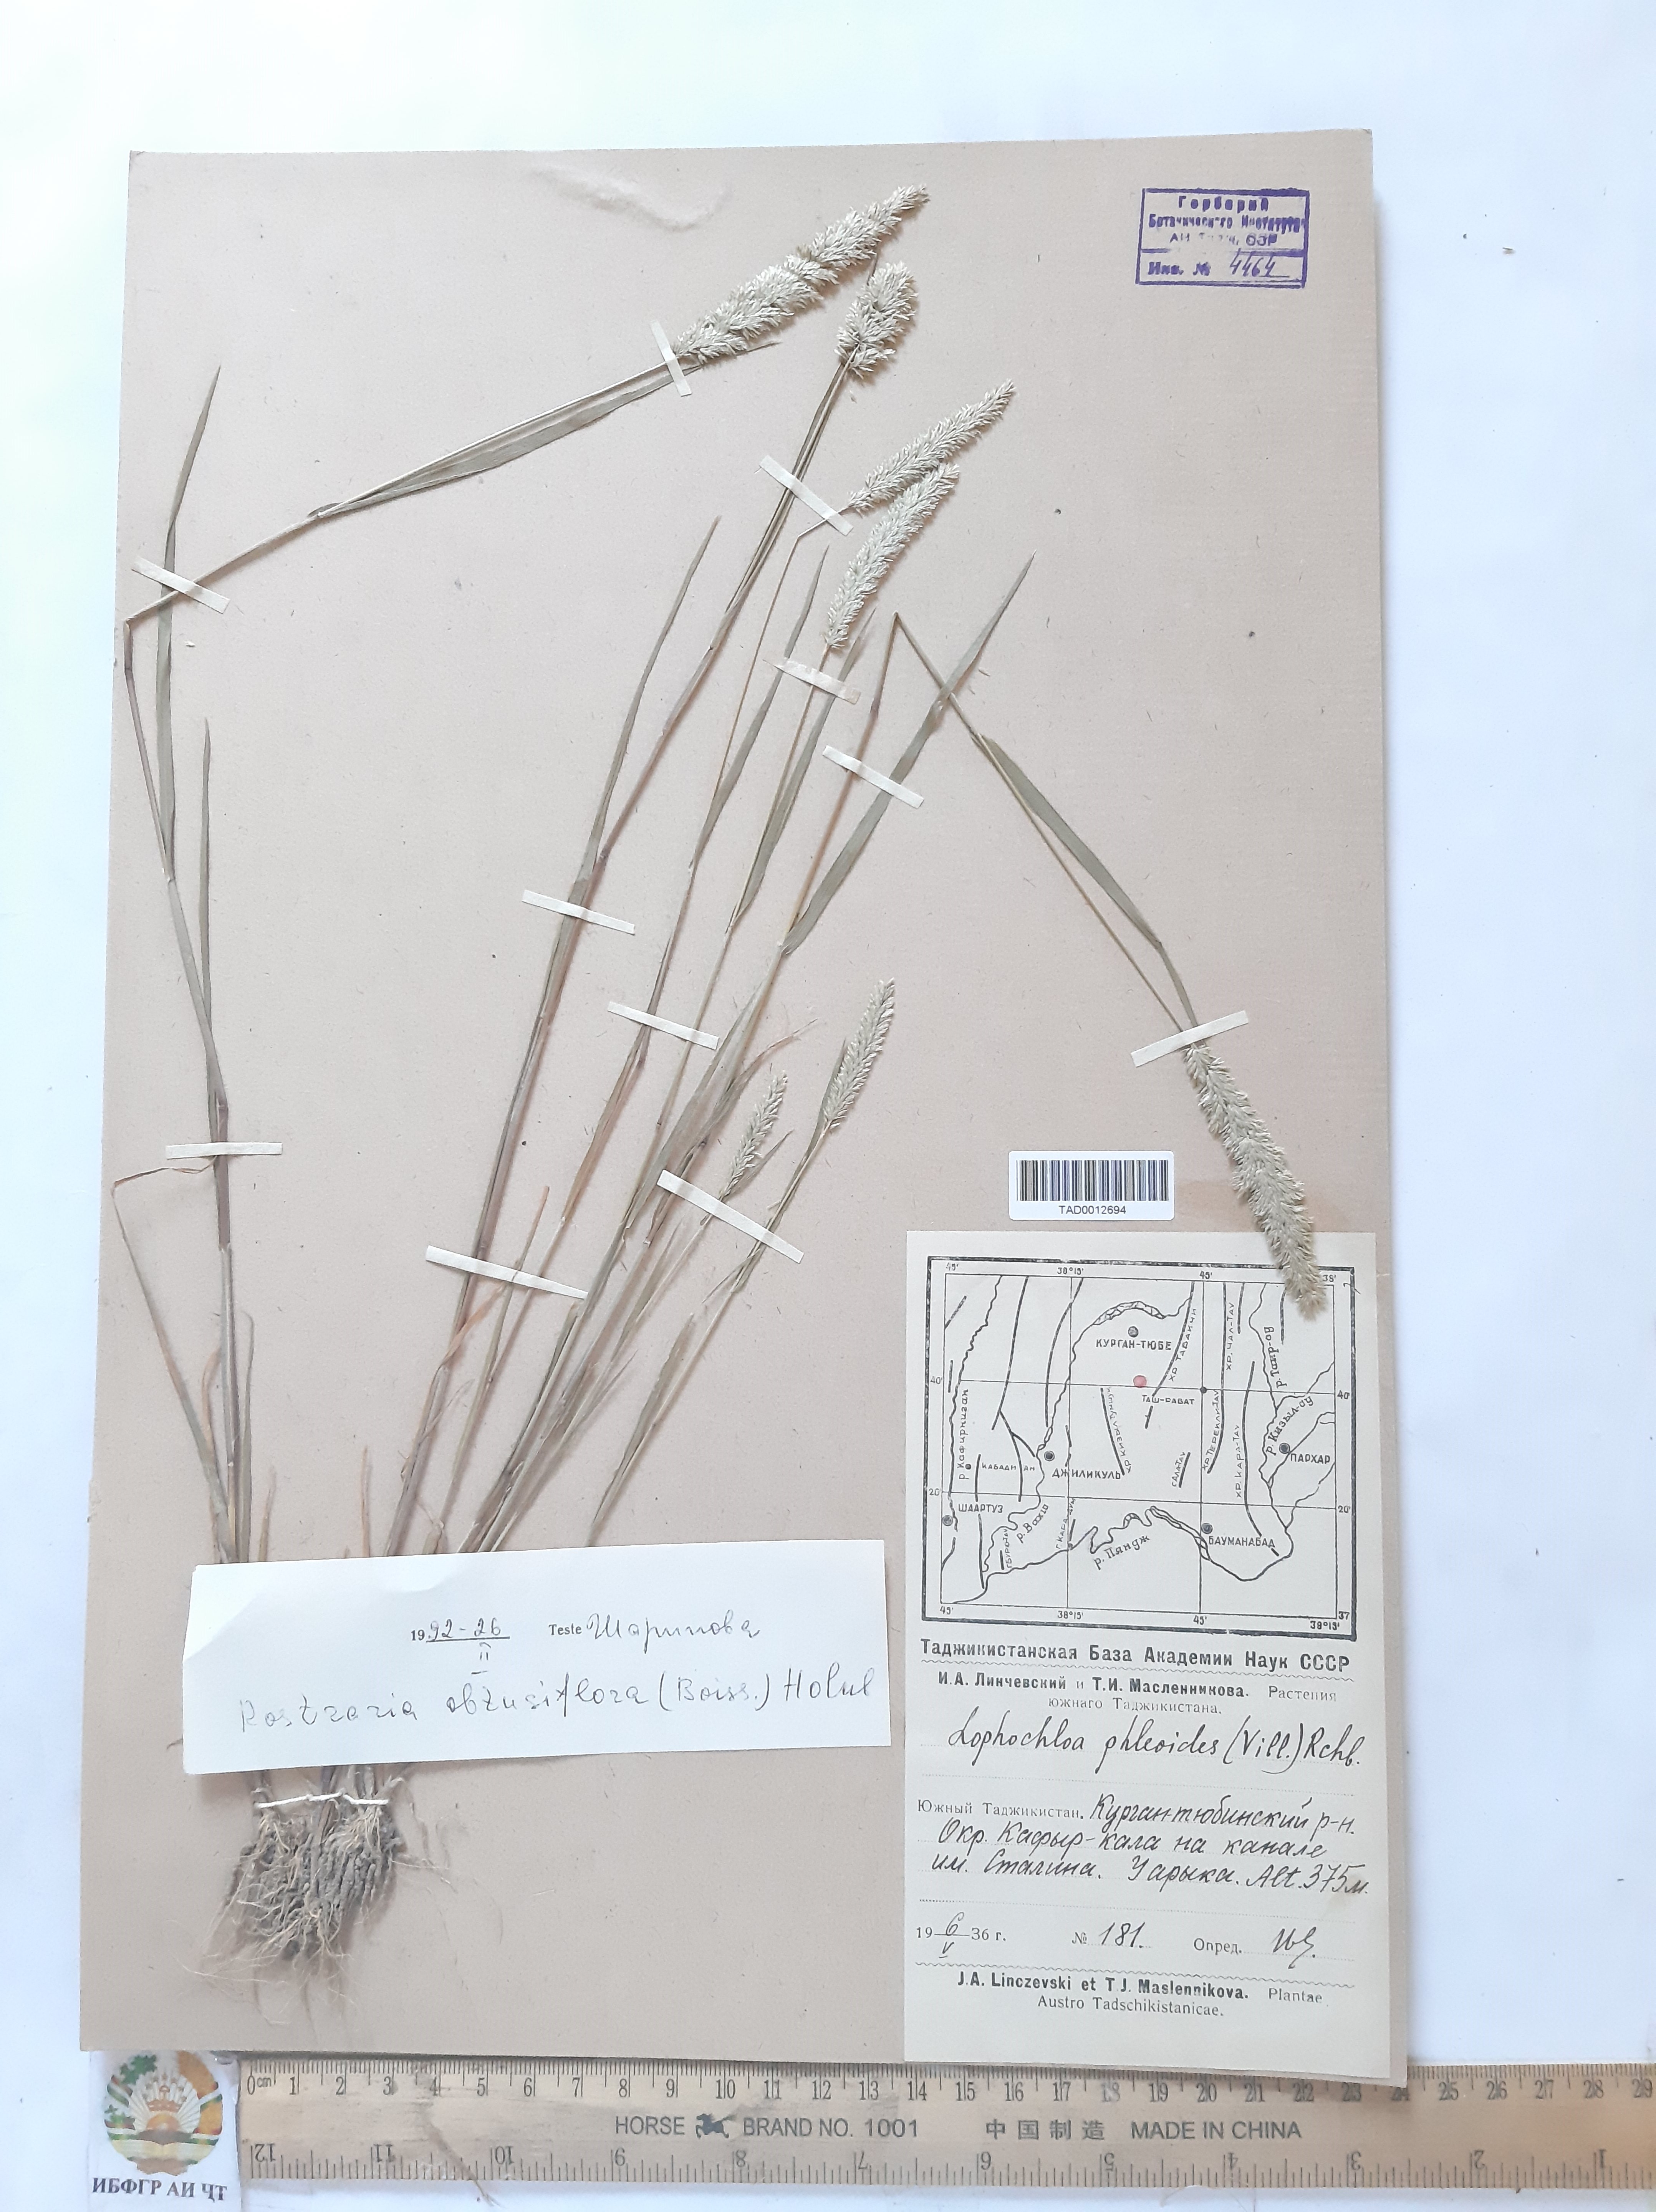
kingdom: Plantae
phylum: Tracheophyta
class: Liliopsida
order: Poales
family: Poaceae
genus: Rostraria
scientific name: Rostraria obtusiflora
